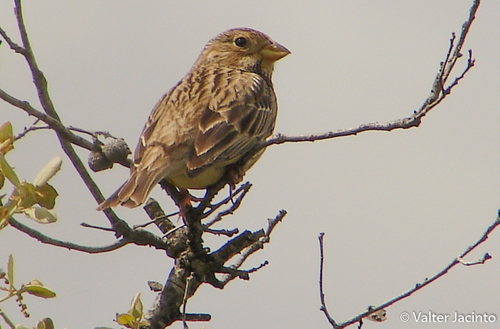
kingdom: Animalia
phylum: Chordata
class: Aves
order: Passeriformes
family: Emberizidae
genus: Emberiza
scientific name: Emberiza calandra
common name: Corn bunting
